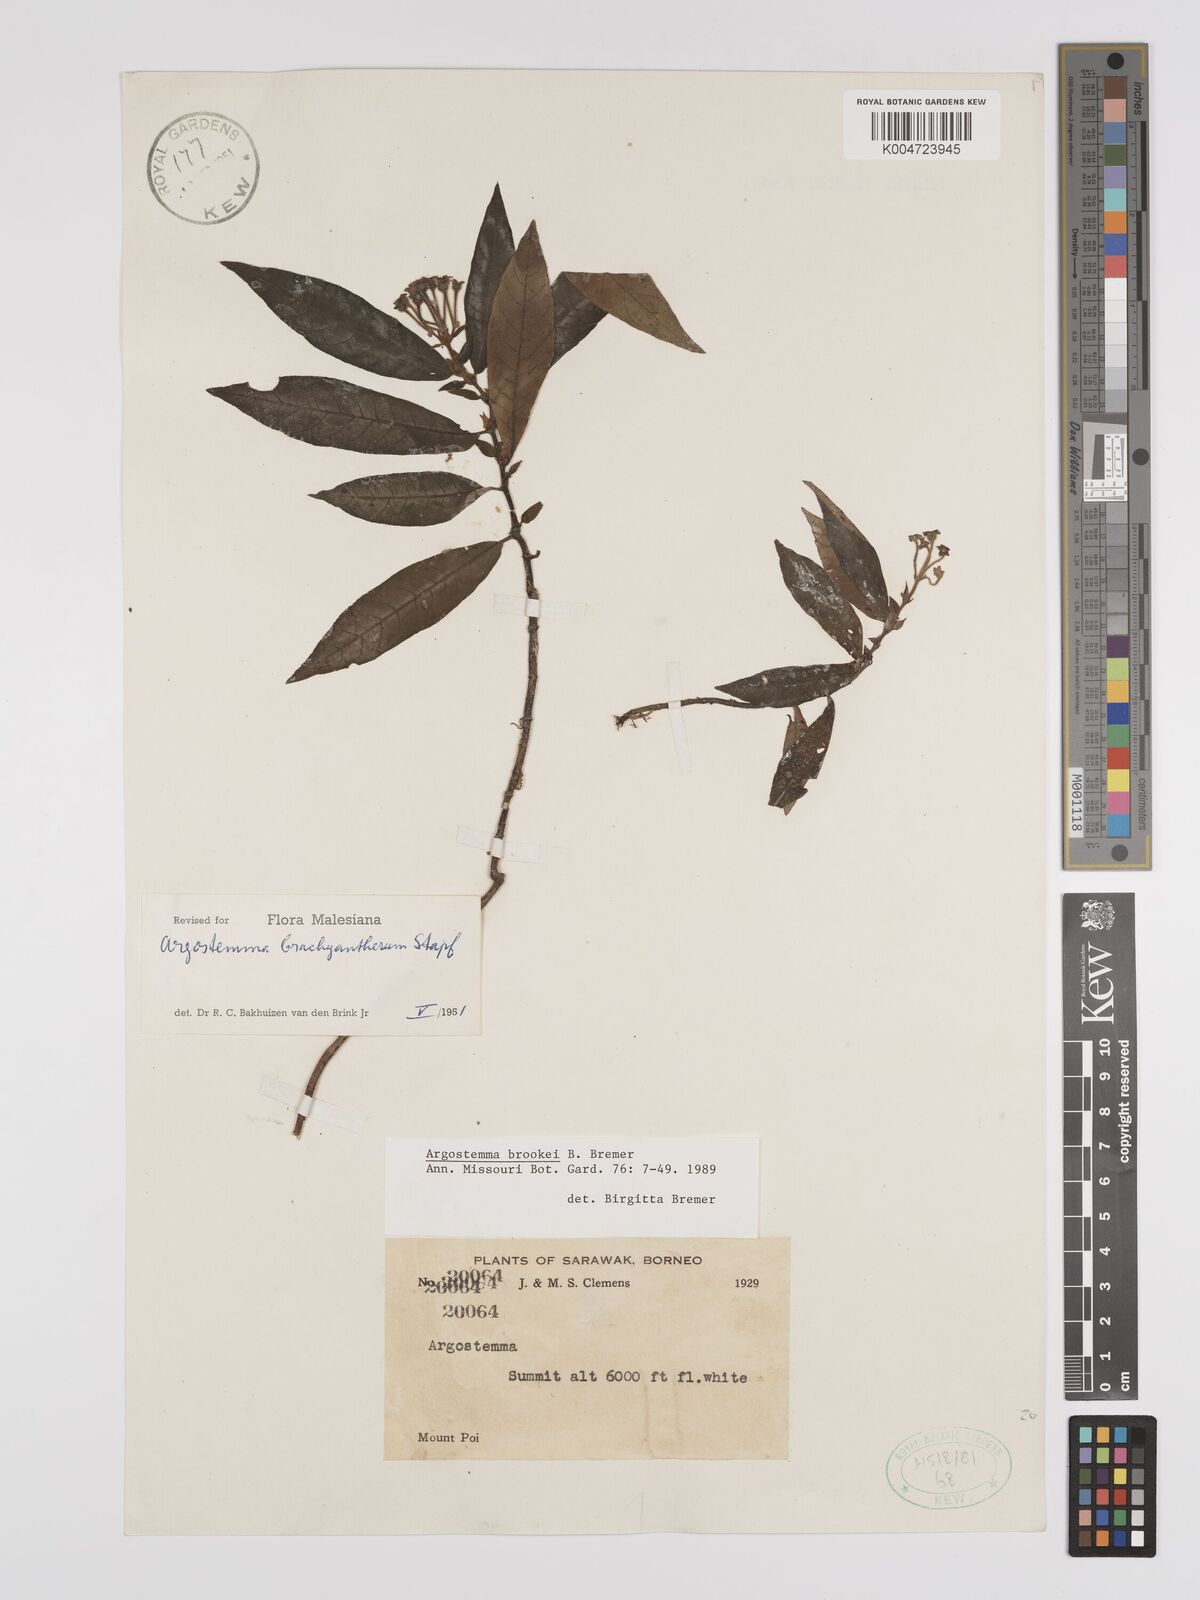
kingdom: Plantae
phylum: Tracheophyta
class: Magnoliopsida
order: Gentianales
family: Rubiaceae
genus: Argostemma
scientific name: Argostemma brookei
